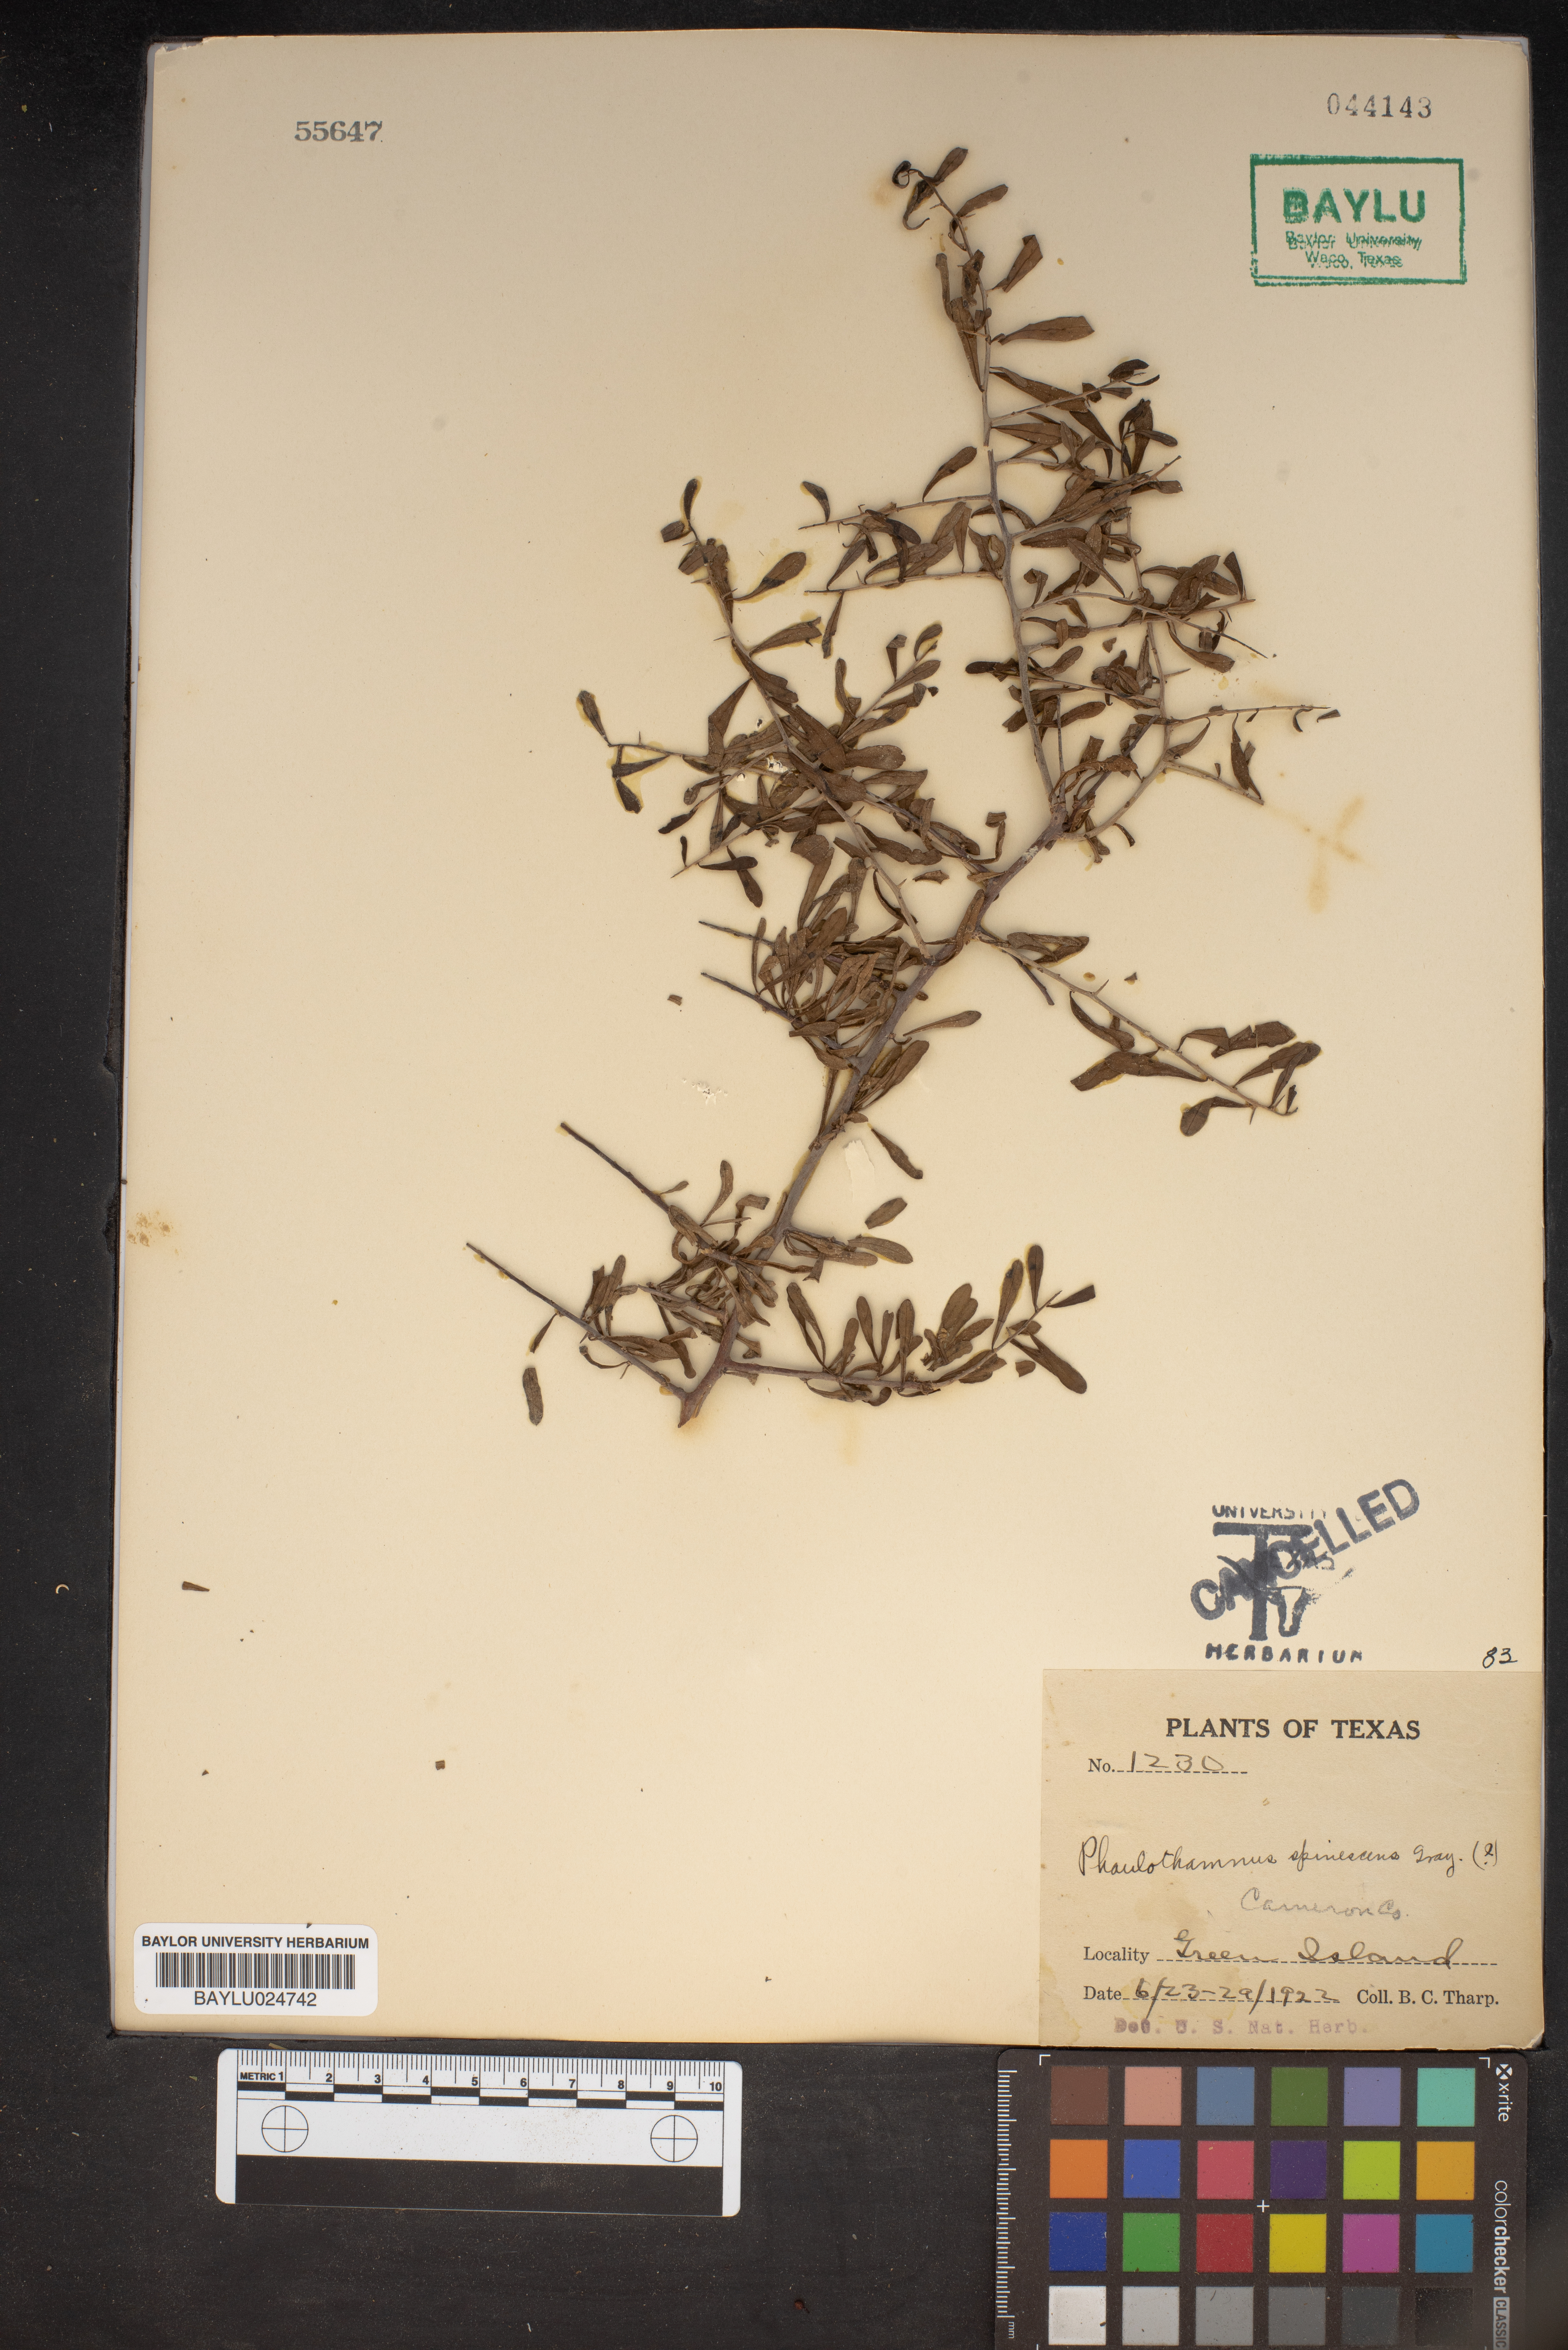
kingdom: Plantae
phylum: Tracheophyta
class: Magnoliopsida
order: Caryophyllales
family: Achatocarpaceae
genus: Phaulothamnus
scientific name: Phaulothamnus spinescens
